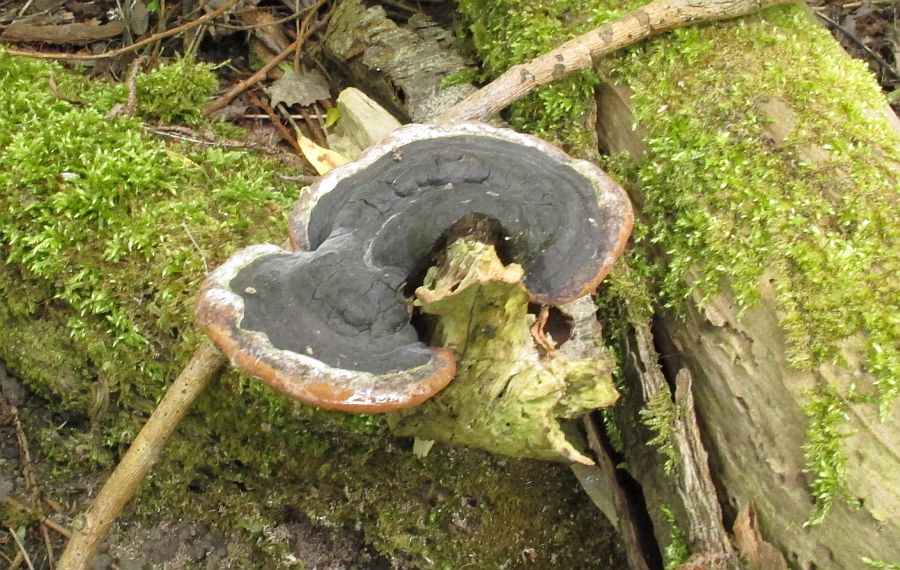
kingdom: Fungi
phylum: Basidiomycota
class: Agaricomycetes
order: Hymenochaetales
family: Hymenochaetaceae
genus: Phellinus
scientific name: Phellinus igniarius
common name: almindelig ildporesvamp
